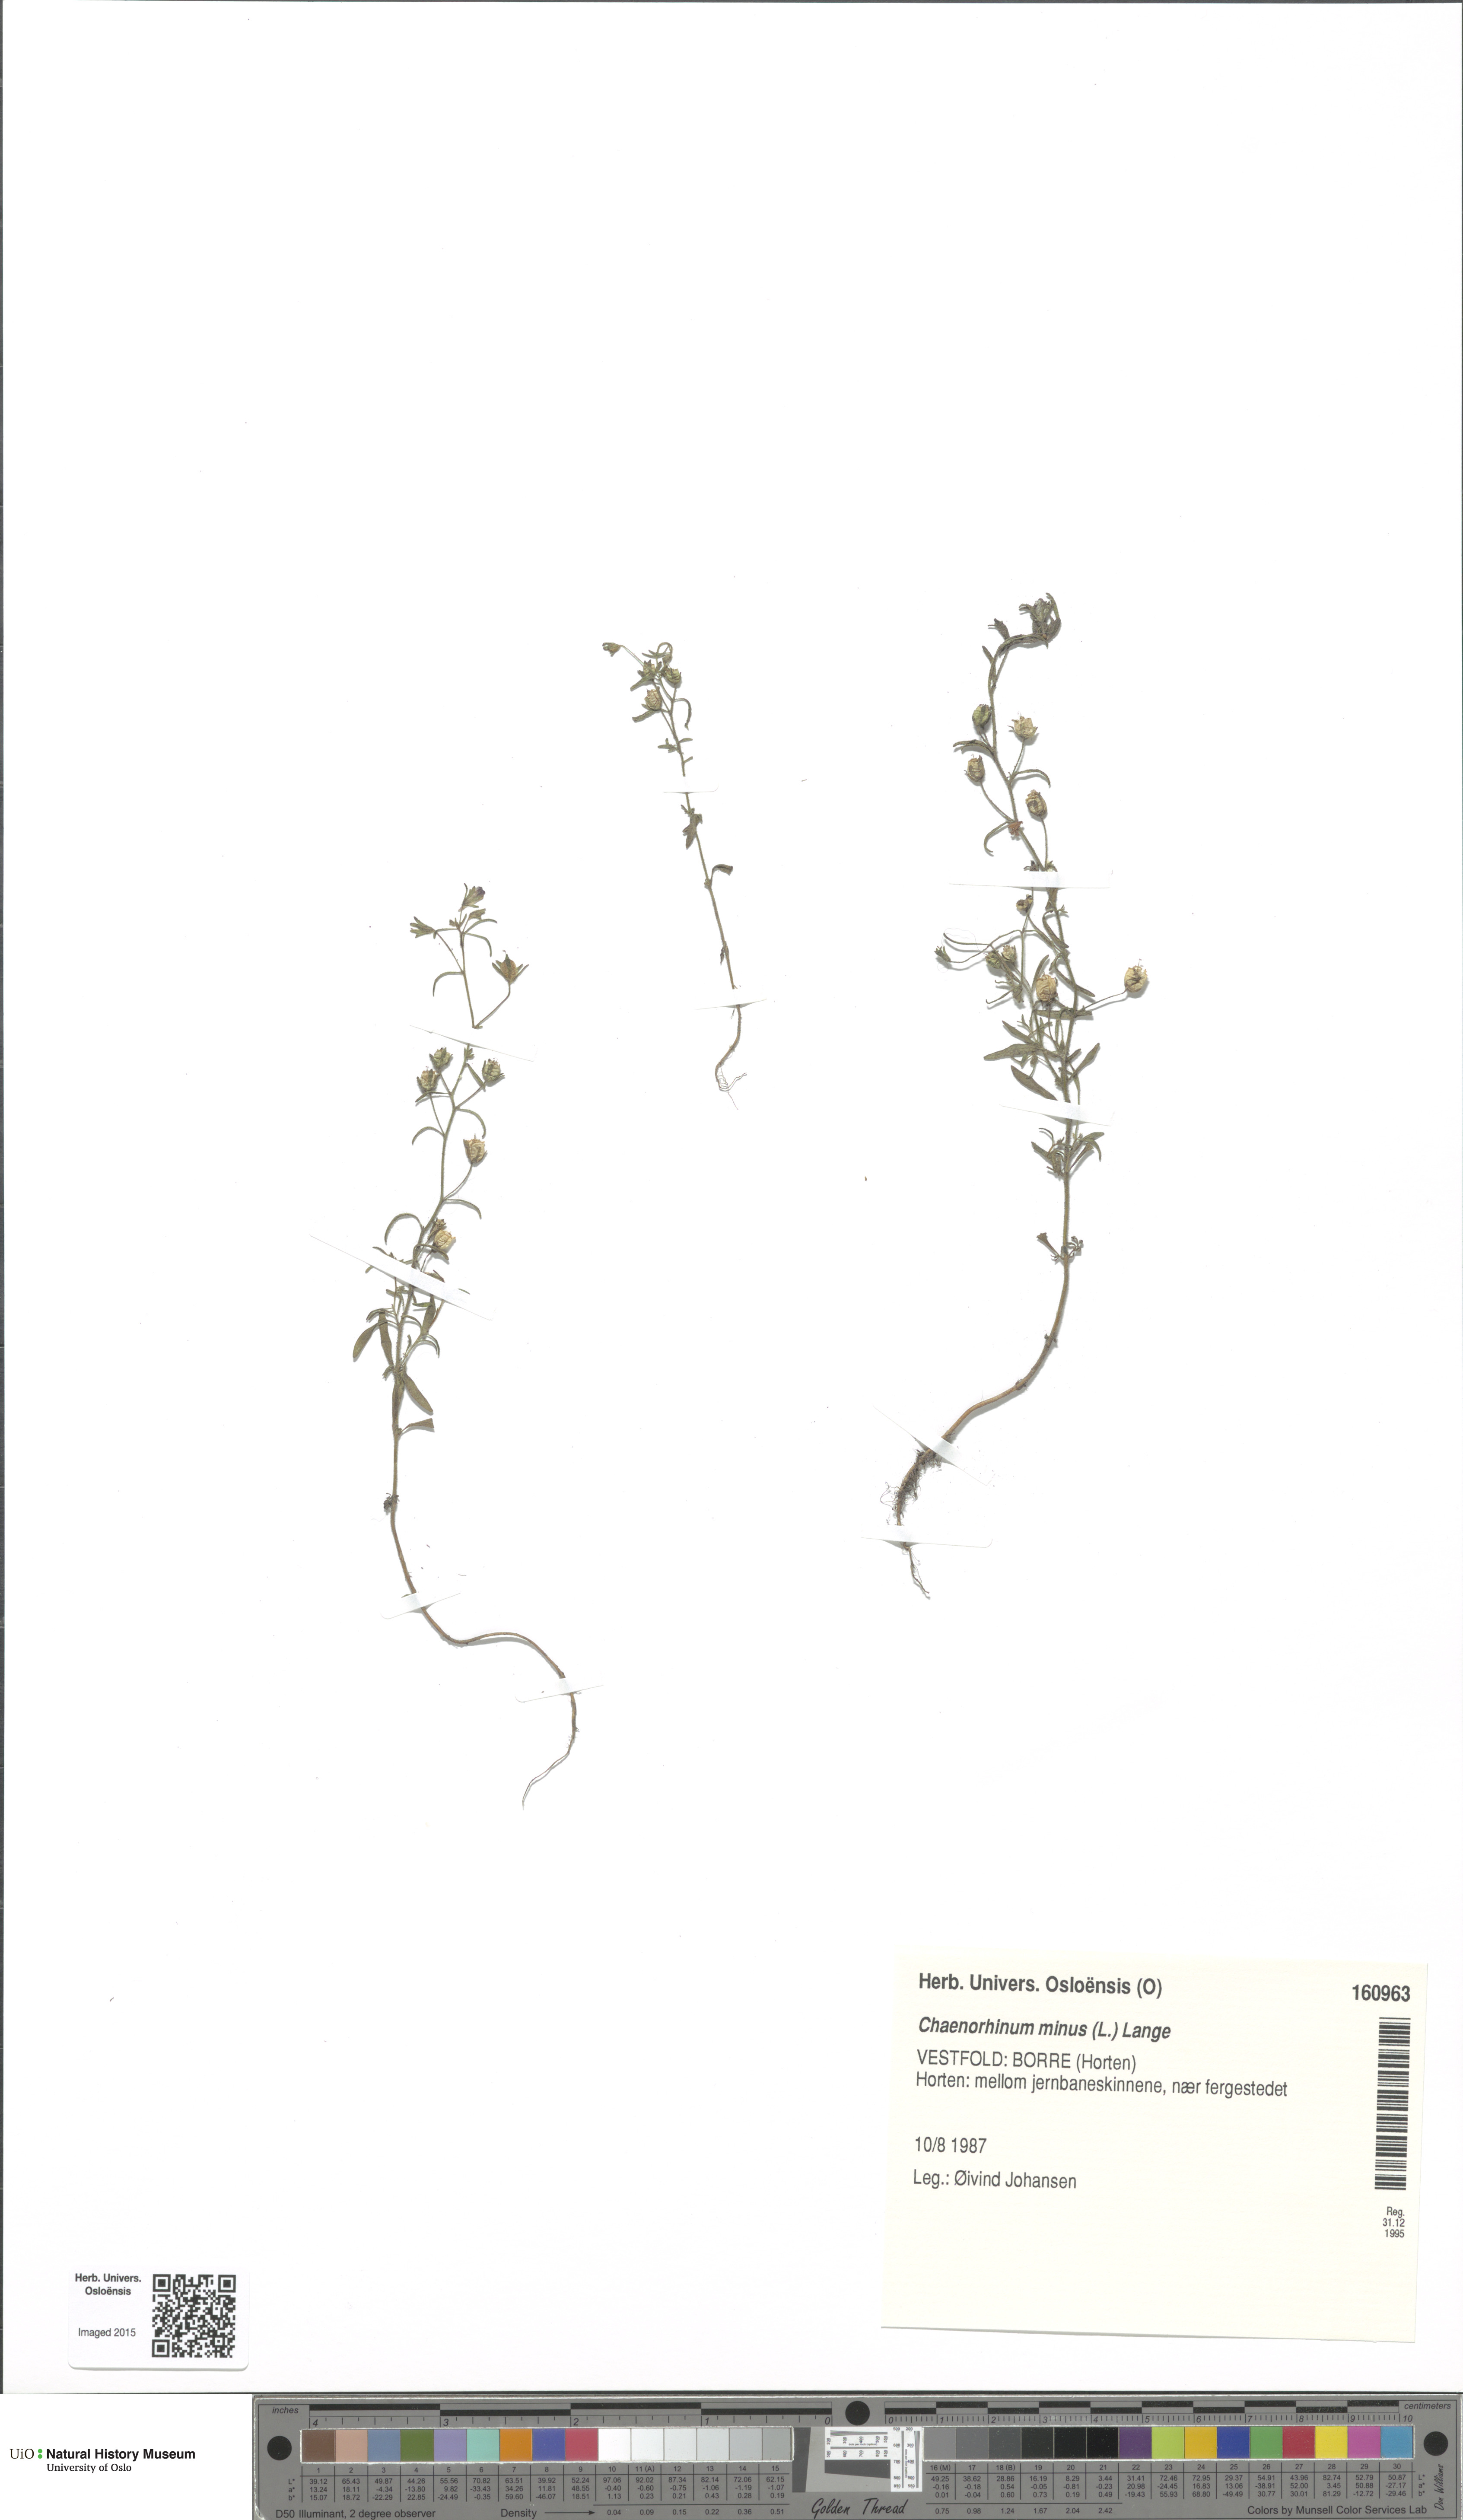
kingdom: Plantae
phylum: Tracheophyta
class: Magnoliopsida
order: Lamiales
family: Plantaginaceae
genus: Chaenorhinum
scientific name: Chaenorhinum minus
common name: Dwarf snapdragon
